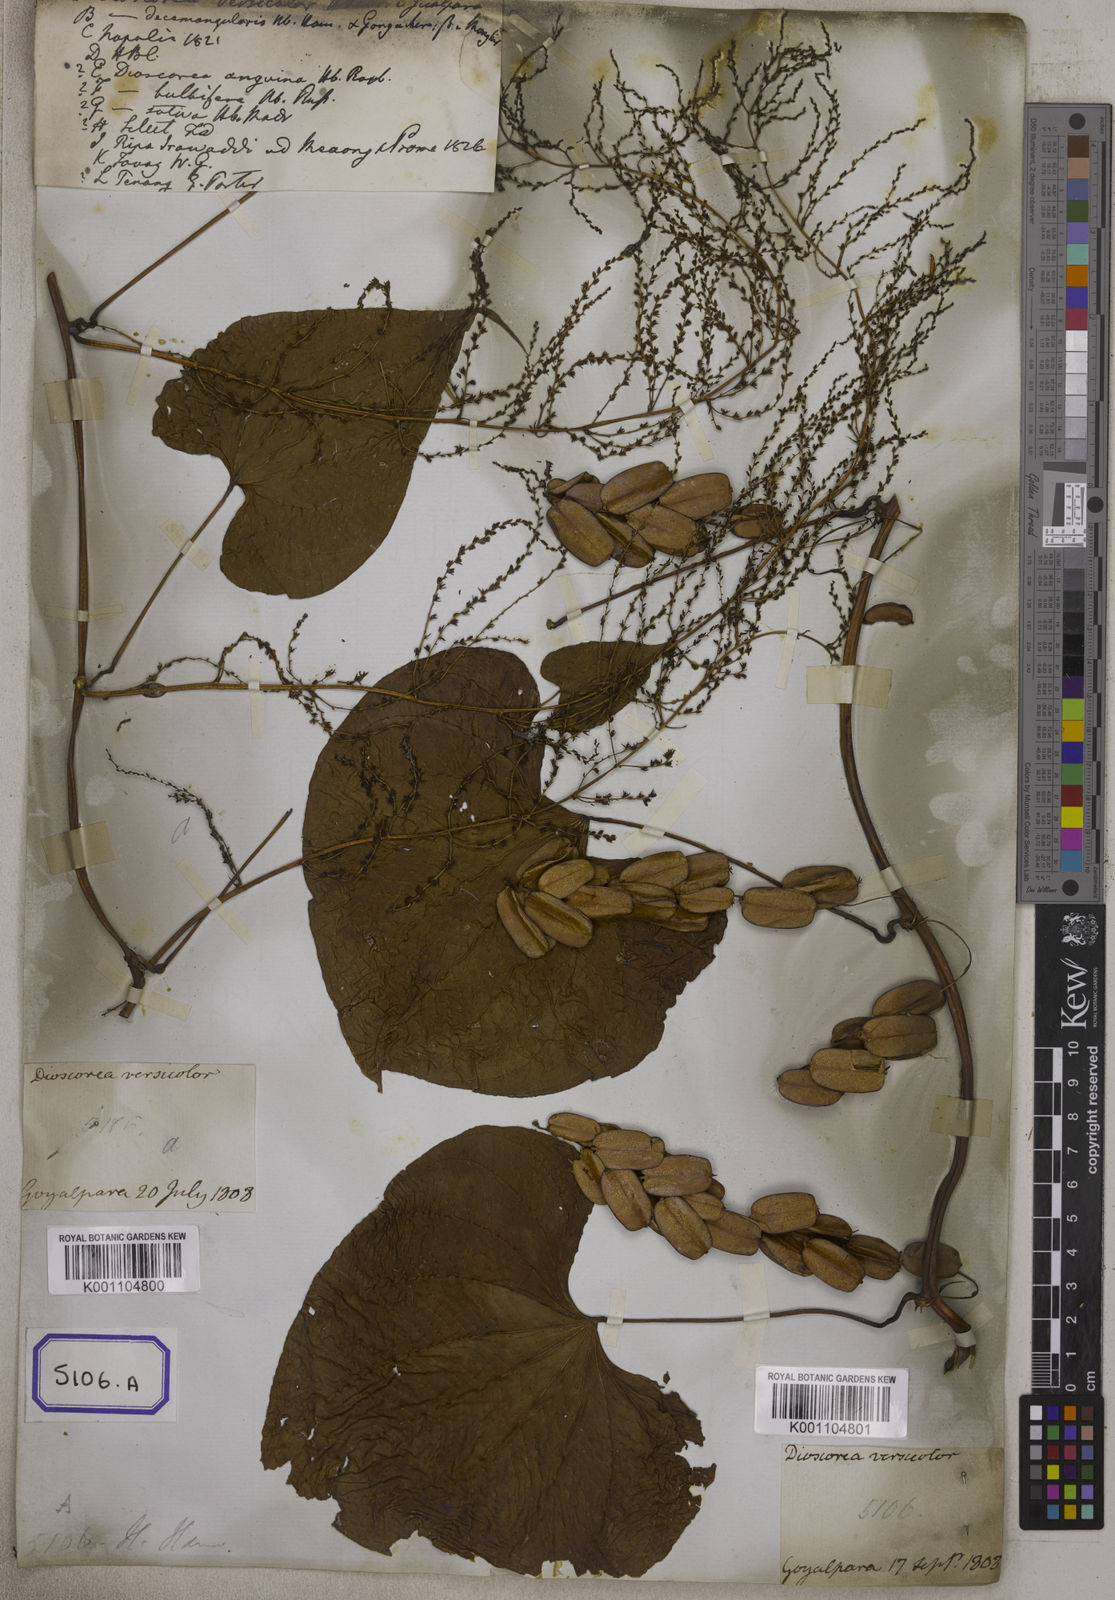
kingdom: Plantae
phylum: Tracheophyta
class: Liliopsida
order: Dioscoreales
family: Dioscoreaceae
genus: Dioscorea
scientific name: Dioscorea
